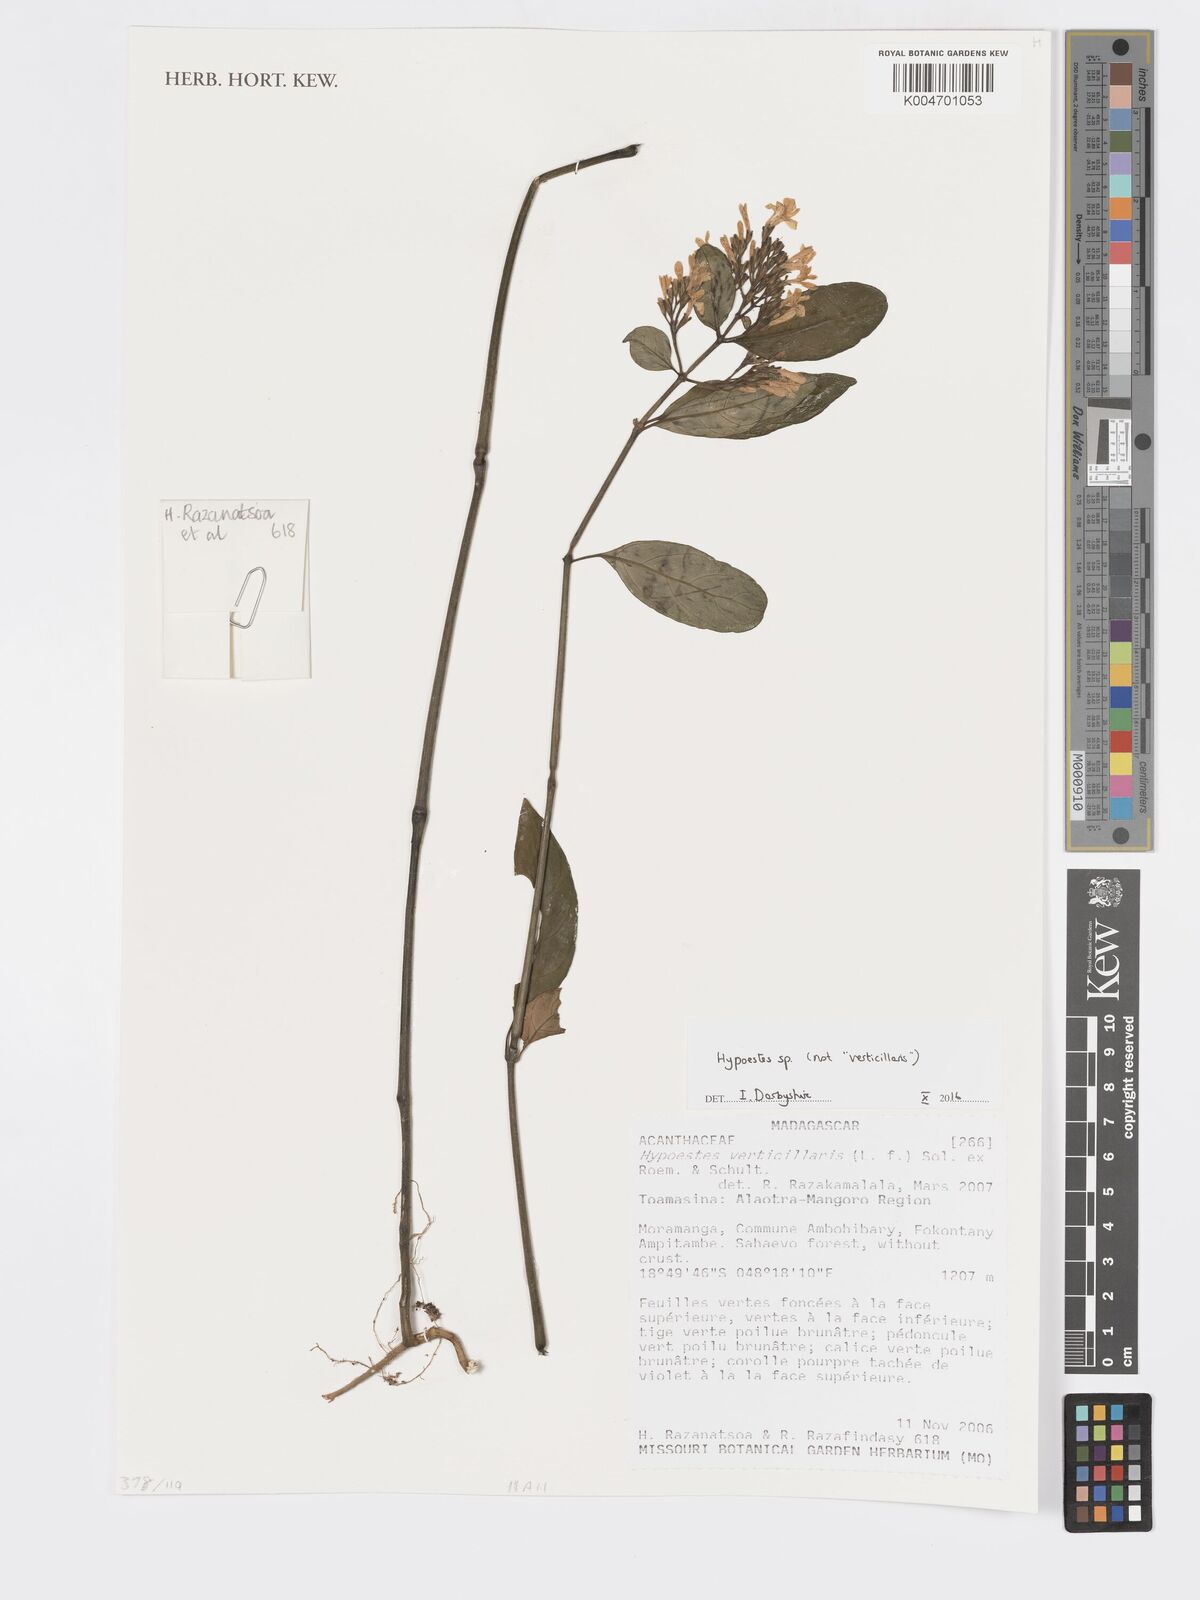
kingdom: Plantae
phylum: Tracheophyta
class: Magnoliopsida
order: Lamiales
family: Acanthaceae
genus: Hypoestes
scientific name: Hypoestes
